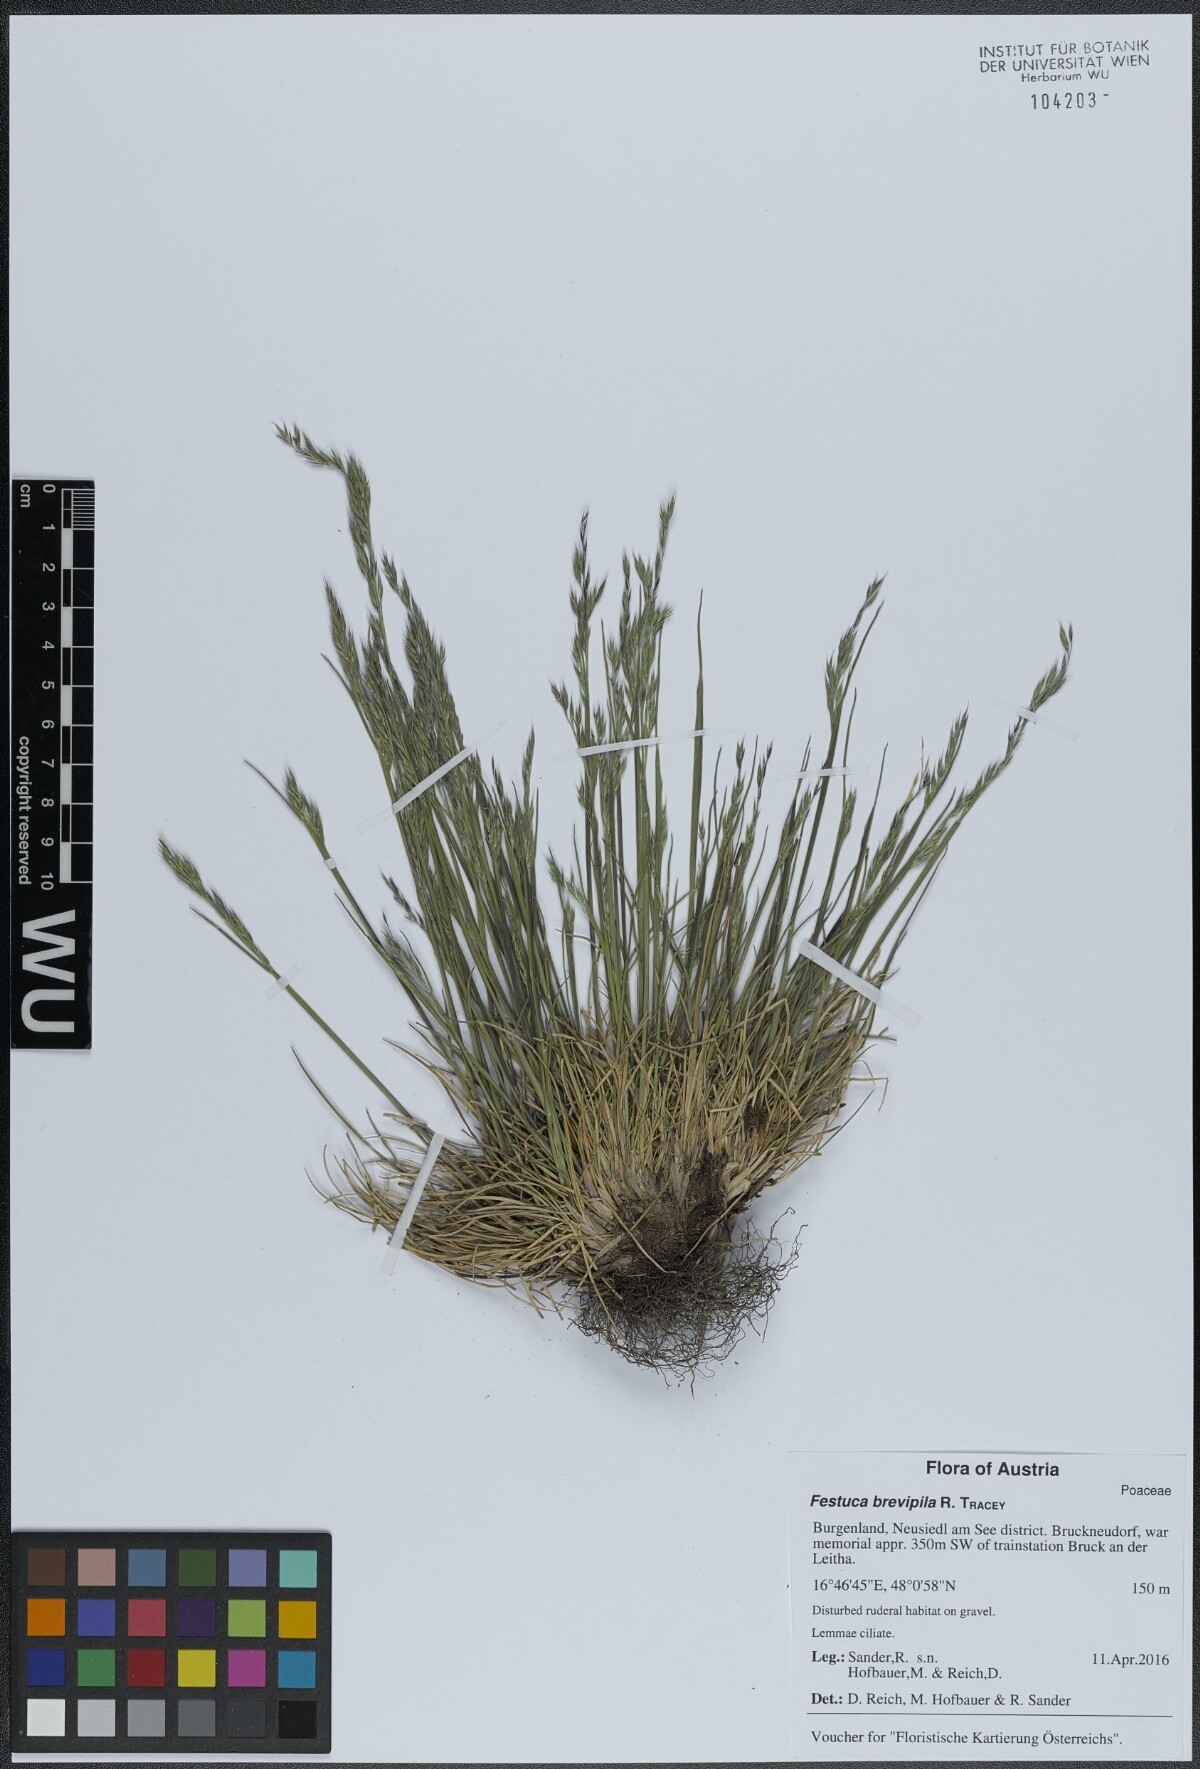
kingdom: Plantae
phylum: Tracheophyta
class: Liliopsida
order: Poales
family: Poaceae
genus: Festuca
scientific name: Festuca trachyphylla
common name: Hard fescue
